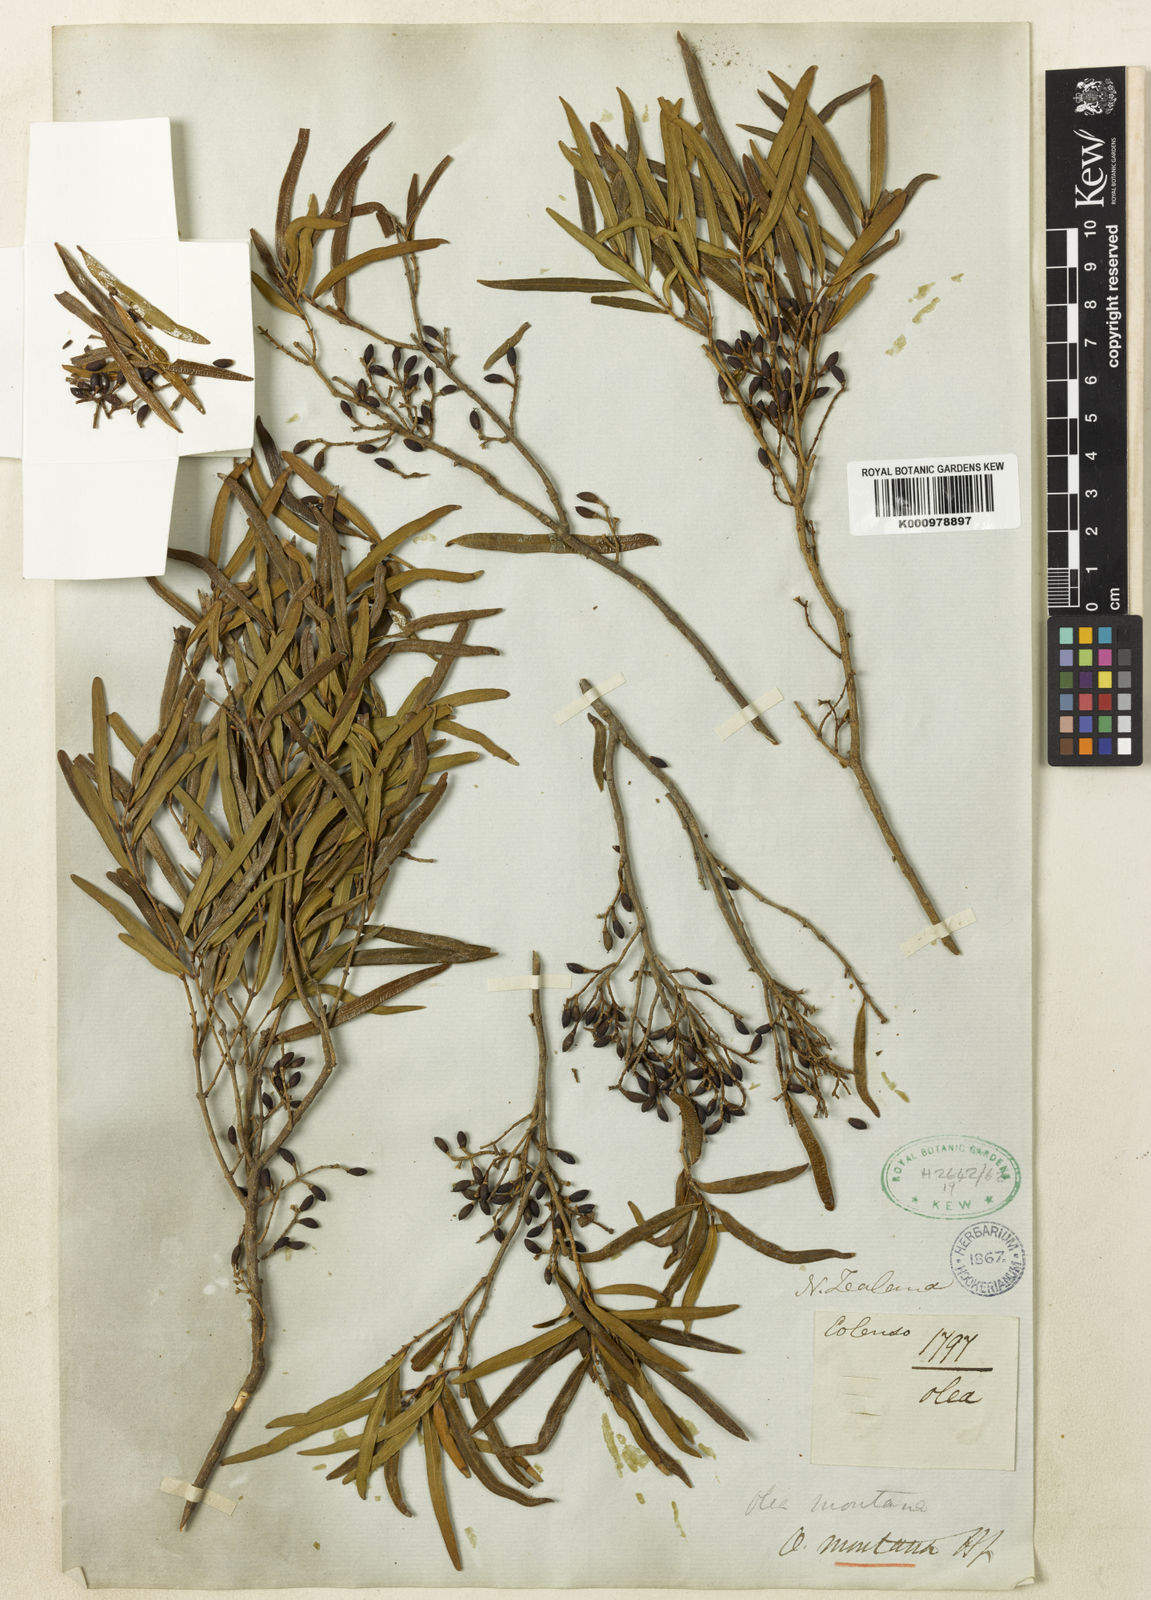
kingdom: Plantae
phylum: Tracheophyta
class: Magnoliopsida
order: Lamiales
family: Oleaceae
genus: Nestegis
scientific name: Nestegis montana
